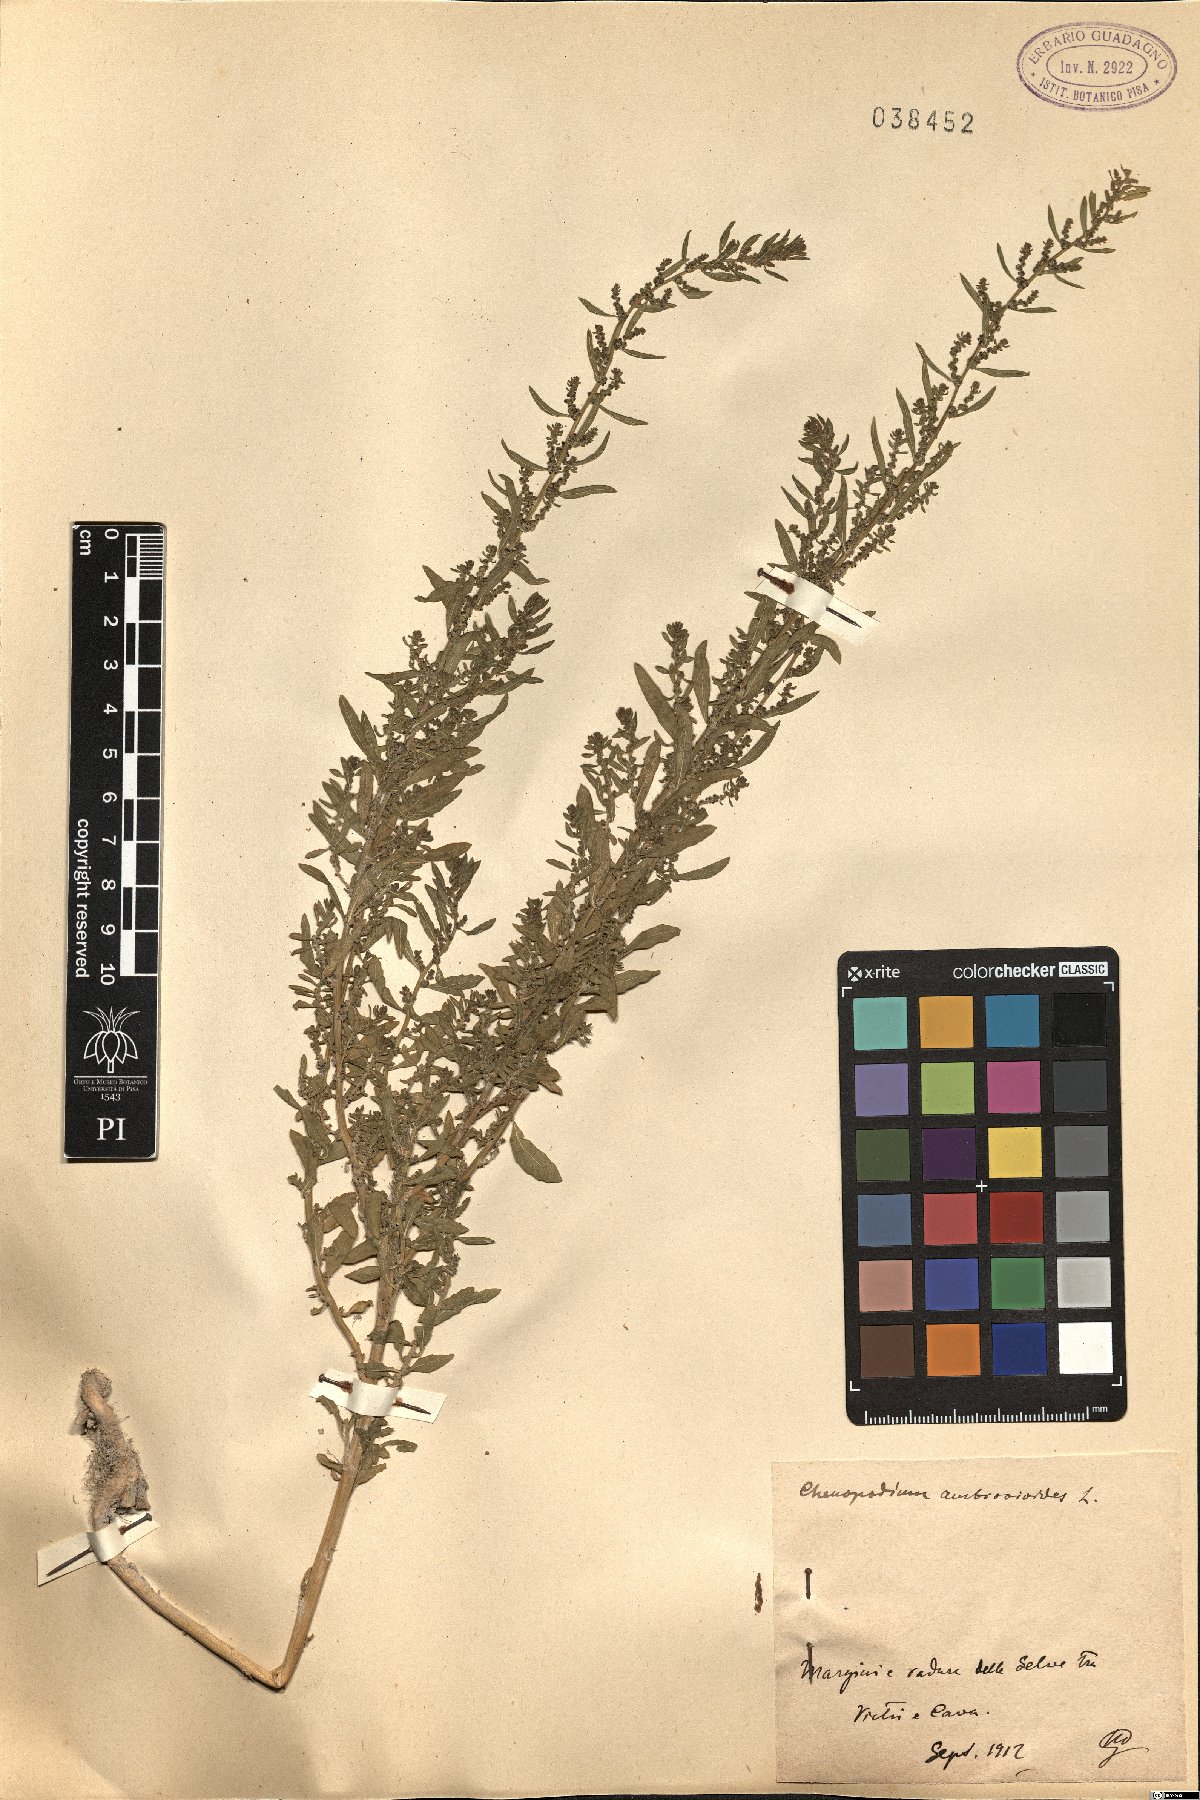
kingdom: Plantae
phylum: Tracheophyta
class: Magnoliopsida
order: Caryophyllales
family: Amaranthaceae
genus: Dysphania
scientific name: Dysphania ambrosioides
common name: Wormseed
